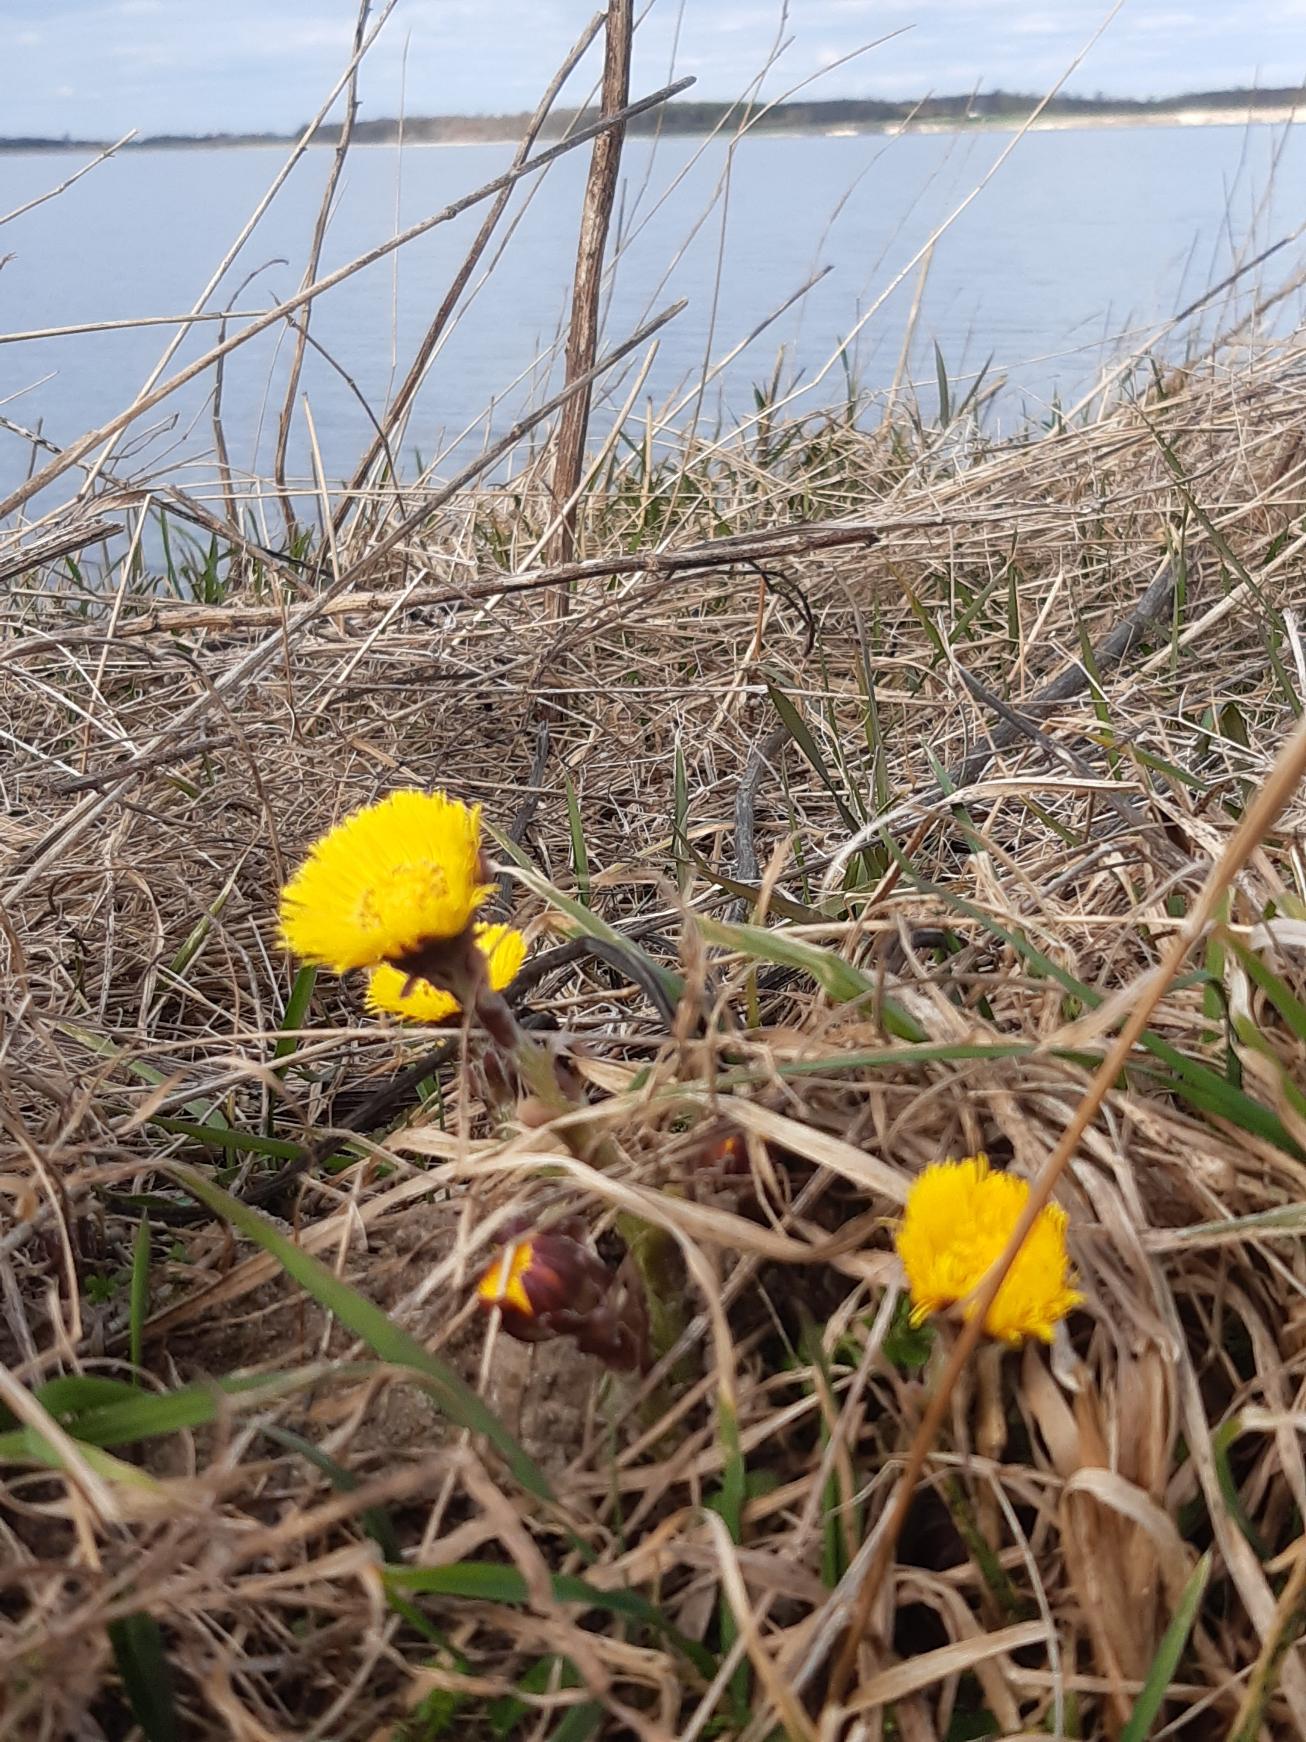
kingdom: Plantae
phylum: Tracheophyta
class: Magnoliopsida
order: Asterales
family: Asteraceae
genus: Tussilago
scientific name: Tussilago farfara
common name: Følfod
